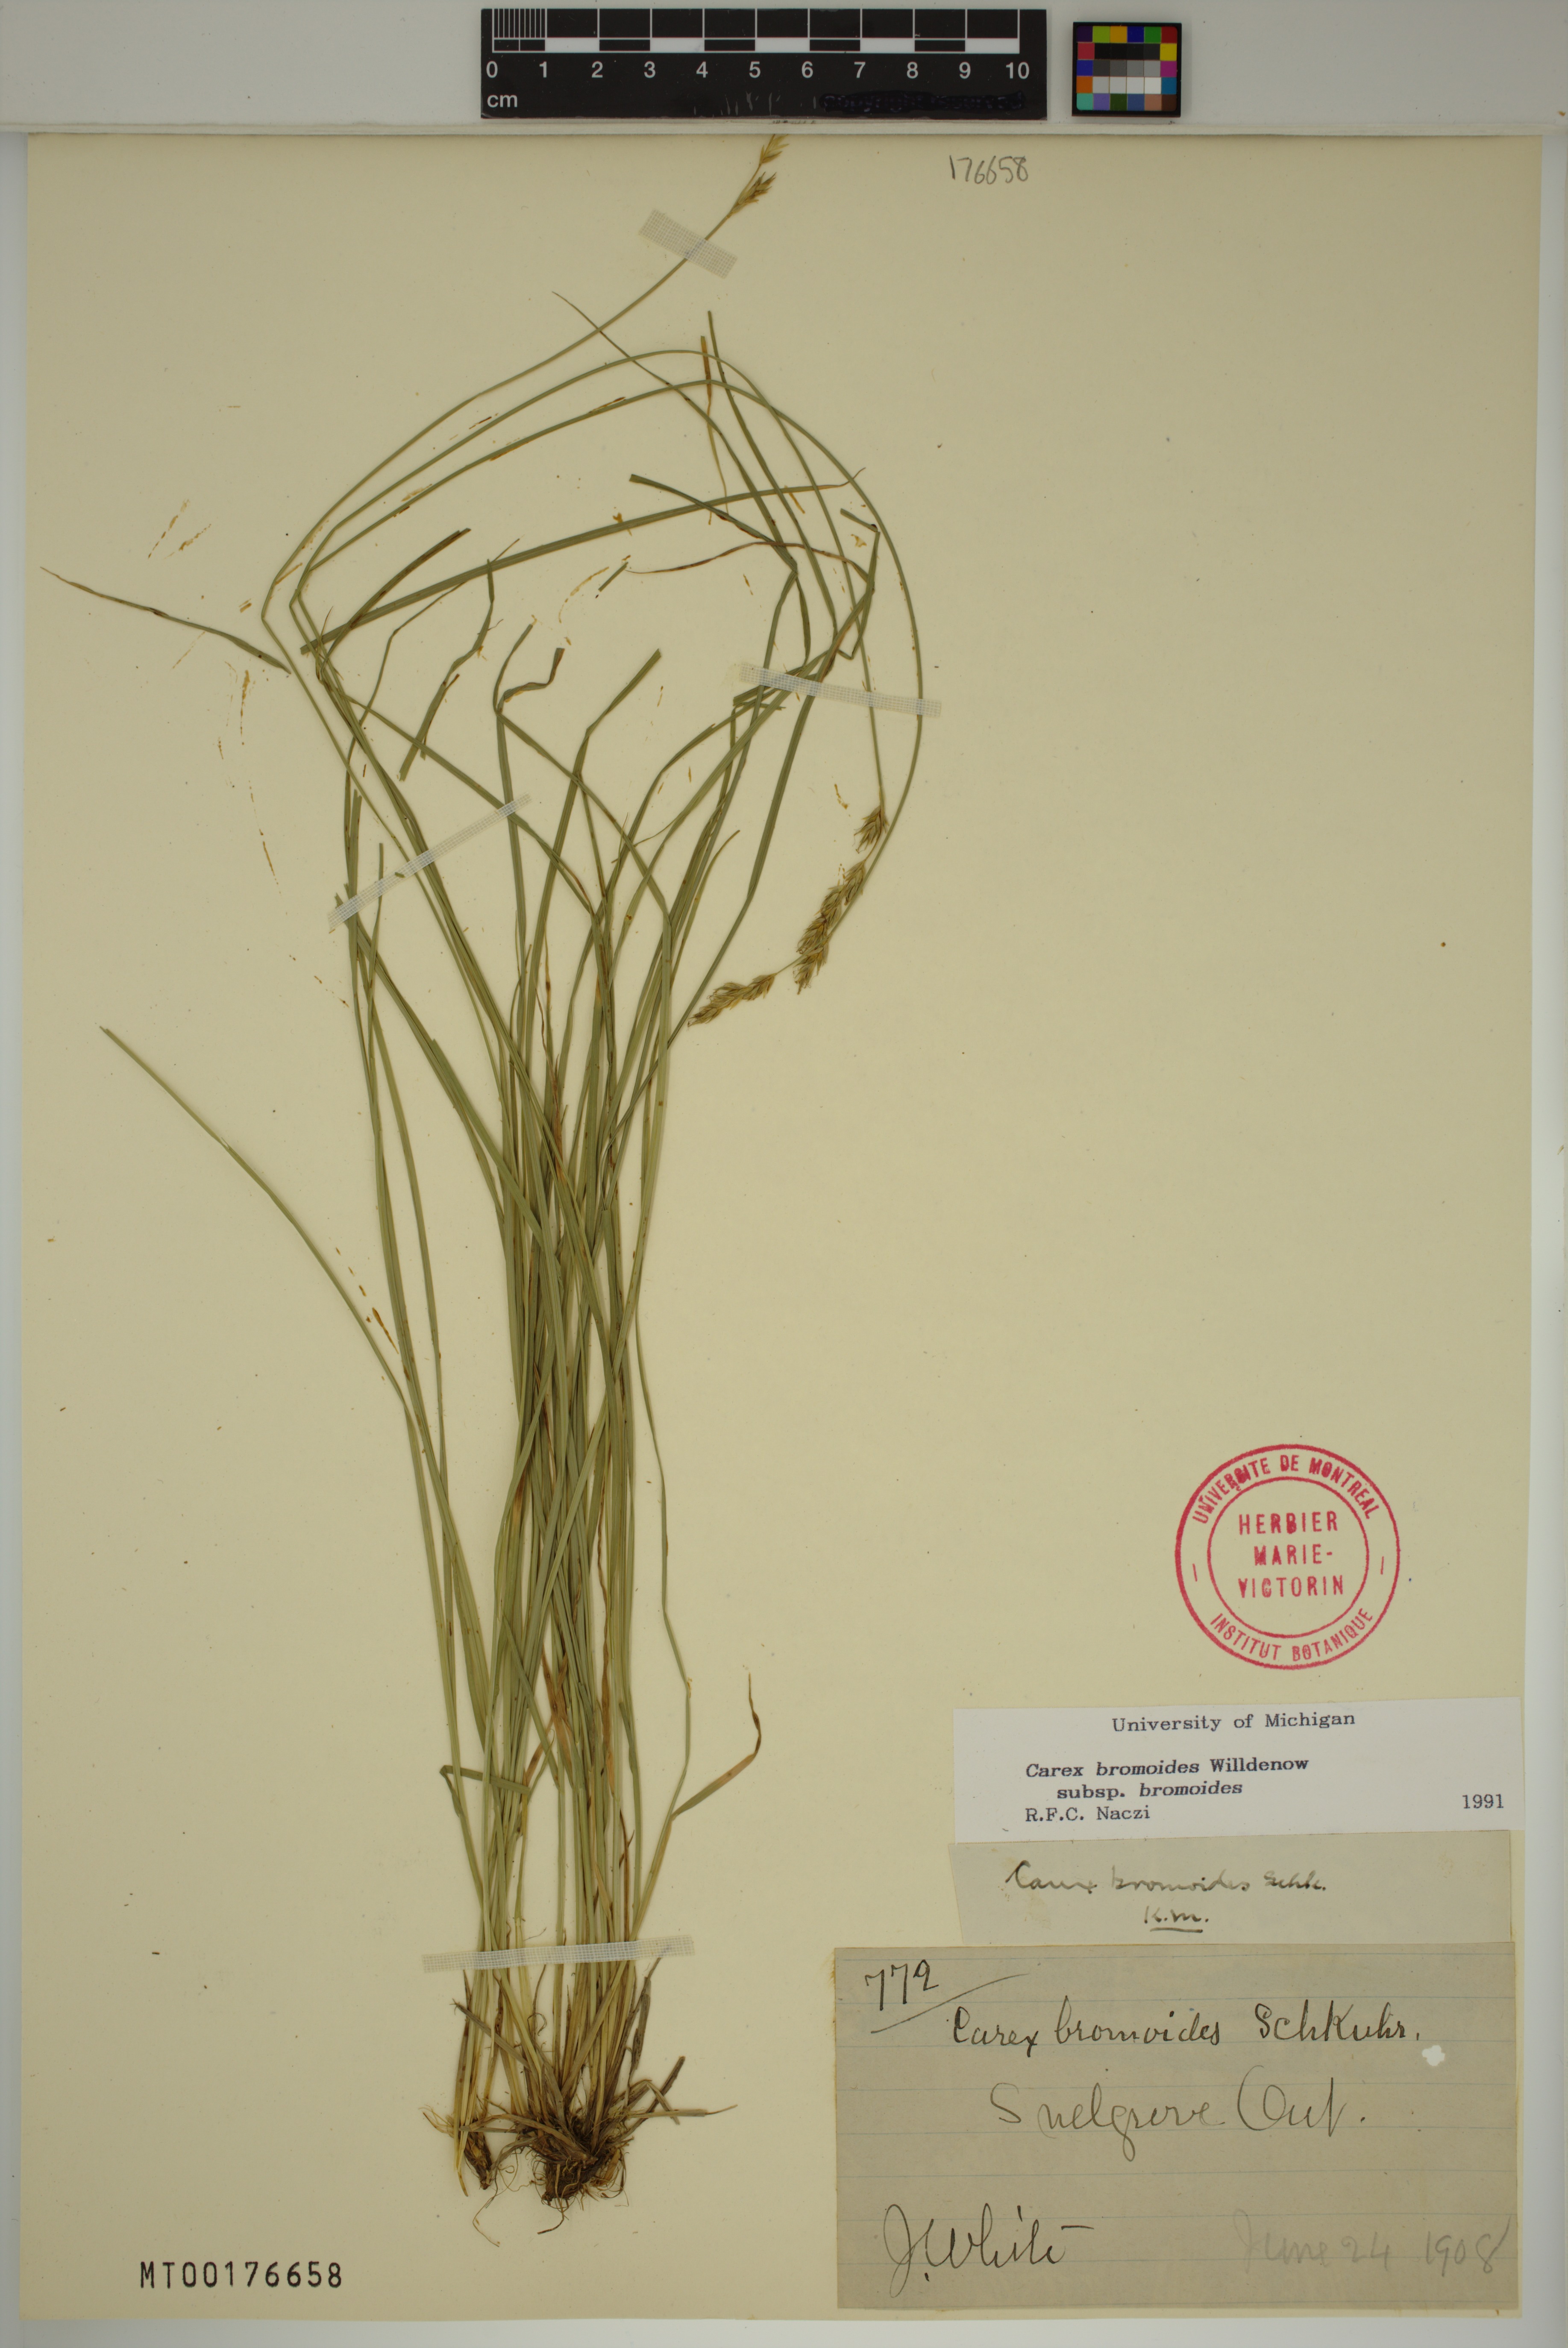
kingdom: Plantae
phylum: Tracheophyta
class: Liliopsida
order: Poales
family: Cyperaceae
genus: Carex
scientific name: Carex bromoides
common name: Brome hummock sedge
